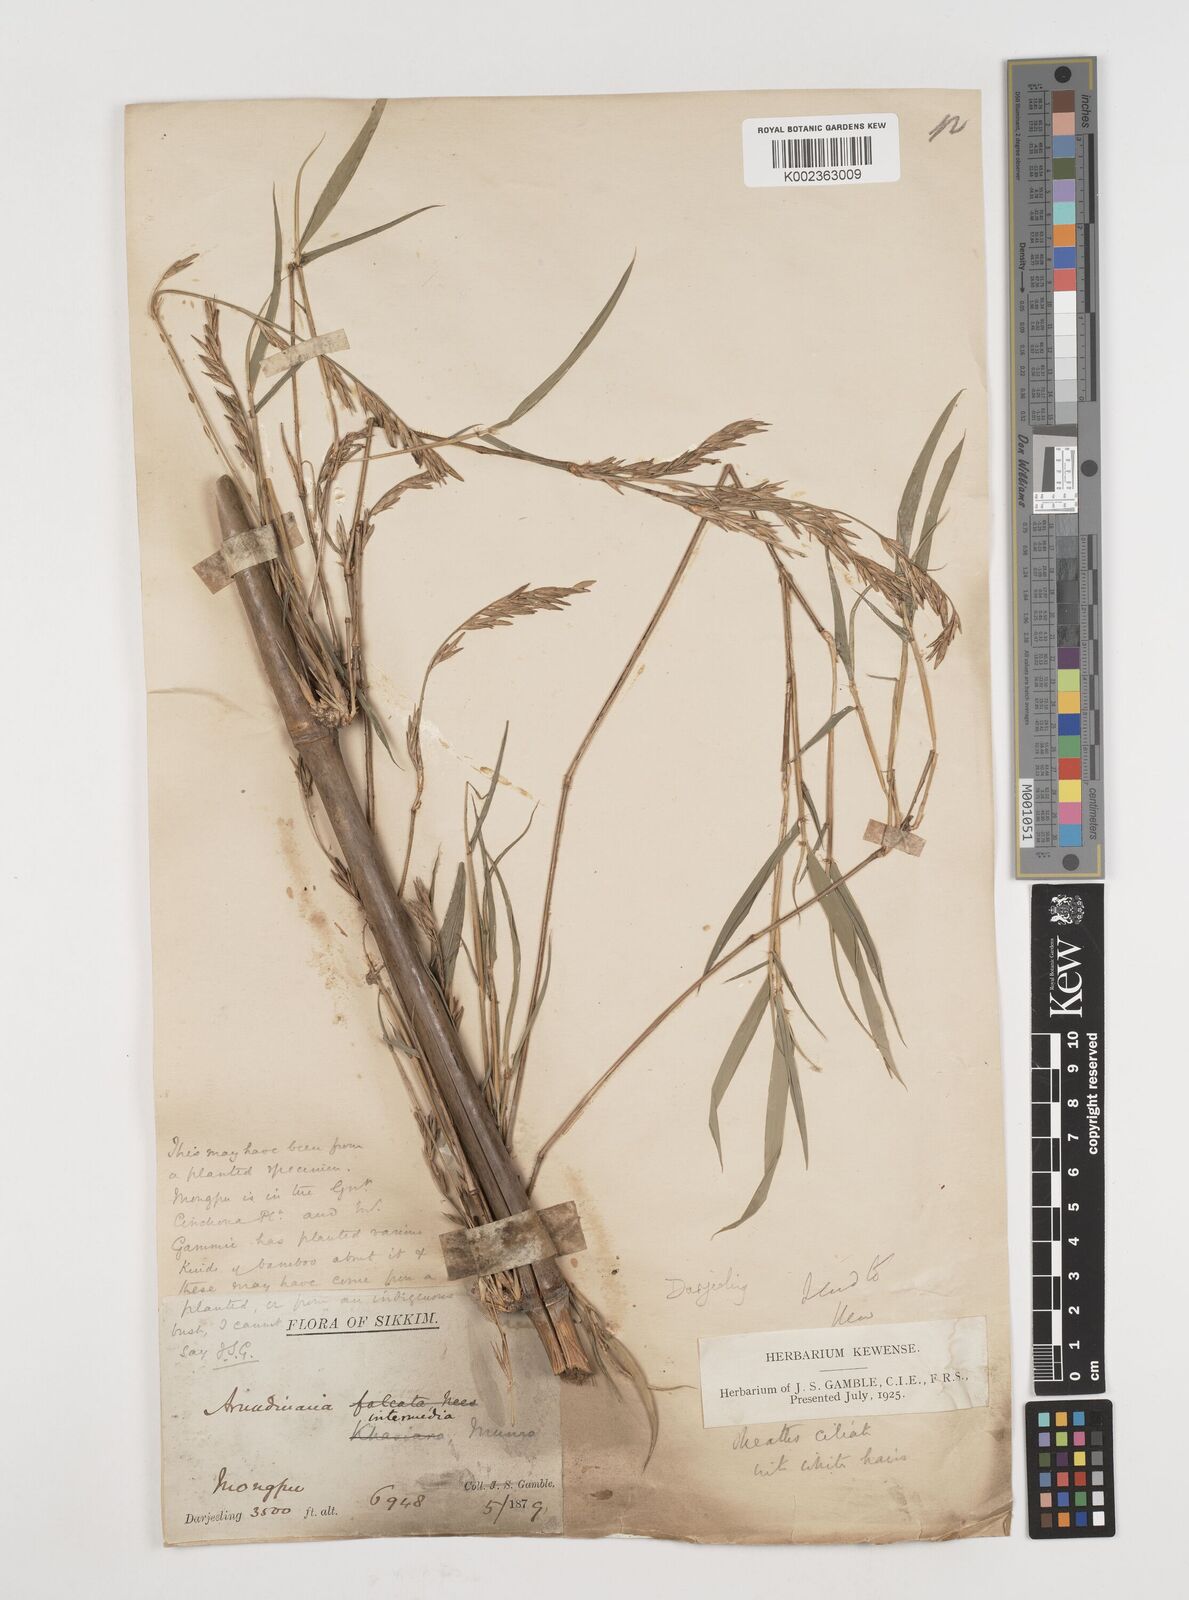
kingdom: Plantae
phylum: Tracheophyta
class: Liliopsida
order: Poales
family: Poaceae
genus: Drepanostachyum
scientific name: Drepanostachyum
